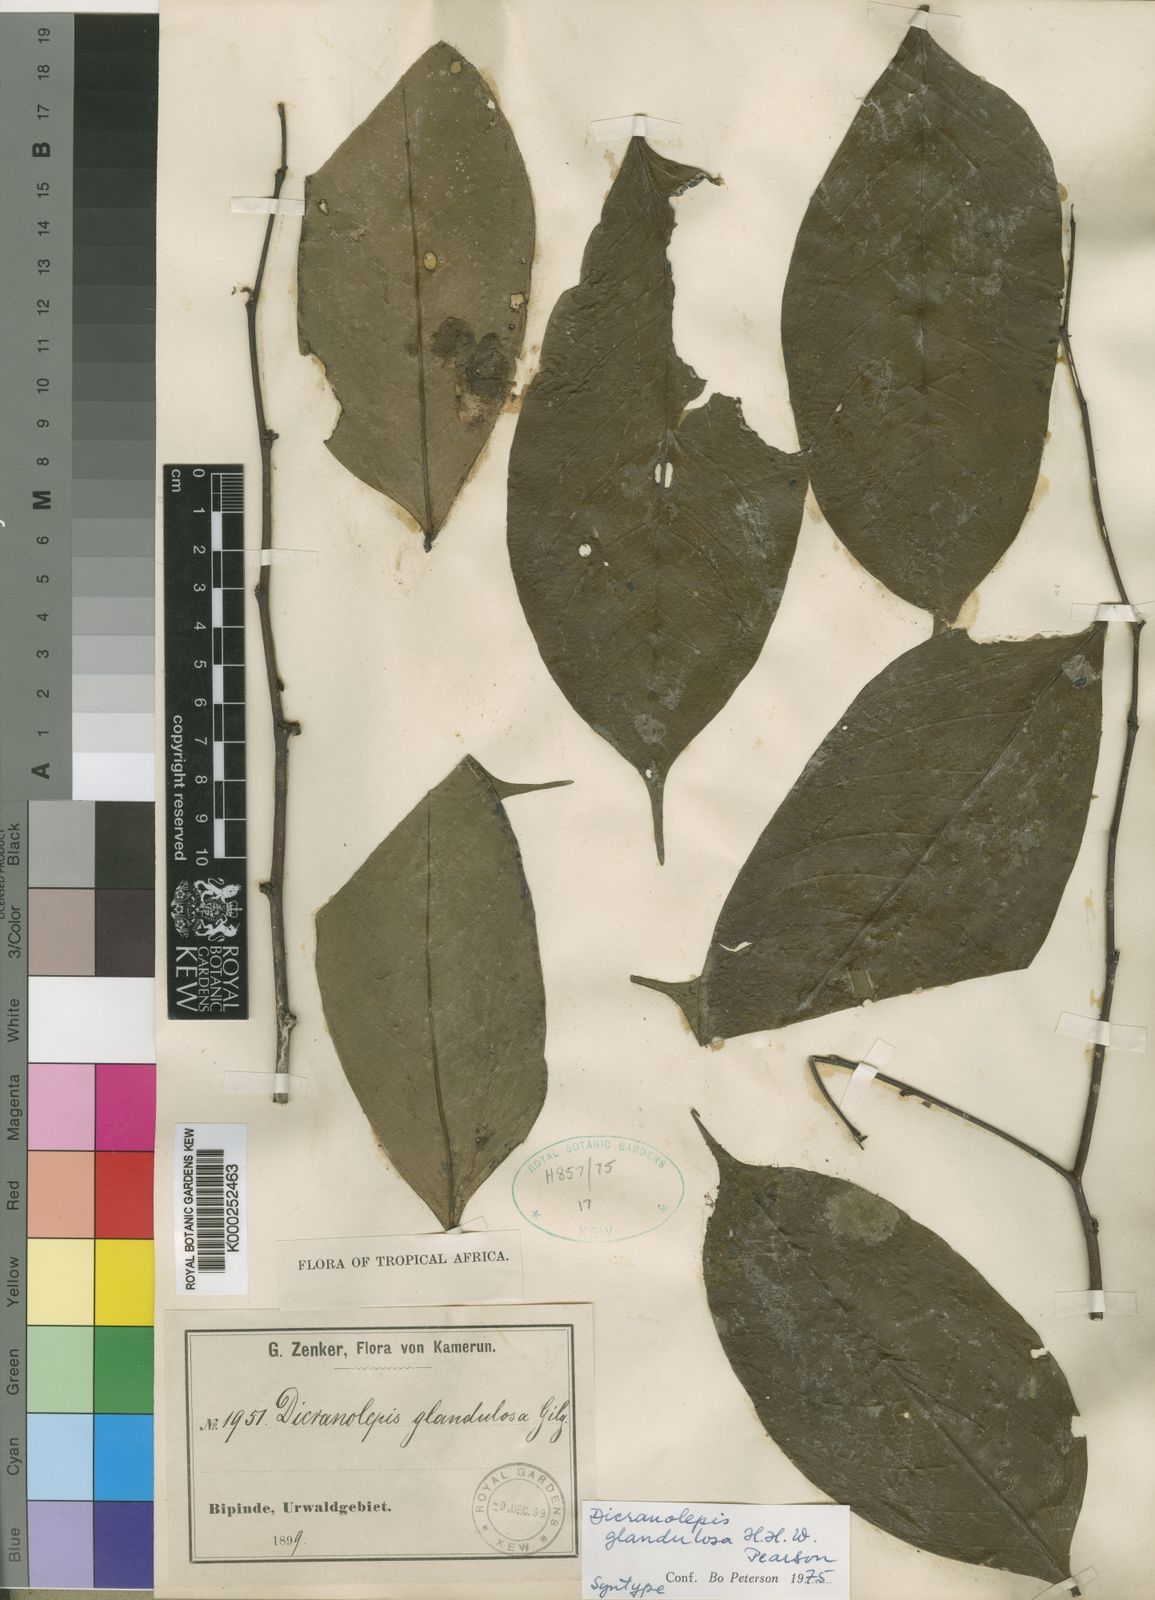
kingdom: Plantae
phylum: Tracheophyta
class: Magnoliopsida
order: Malvales
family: Thymelaeaceae
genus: Dicranolepis
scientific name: Dicranolepis glandulosa
